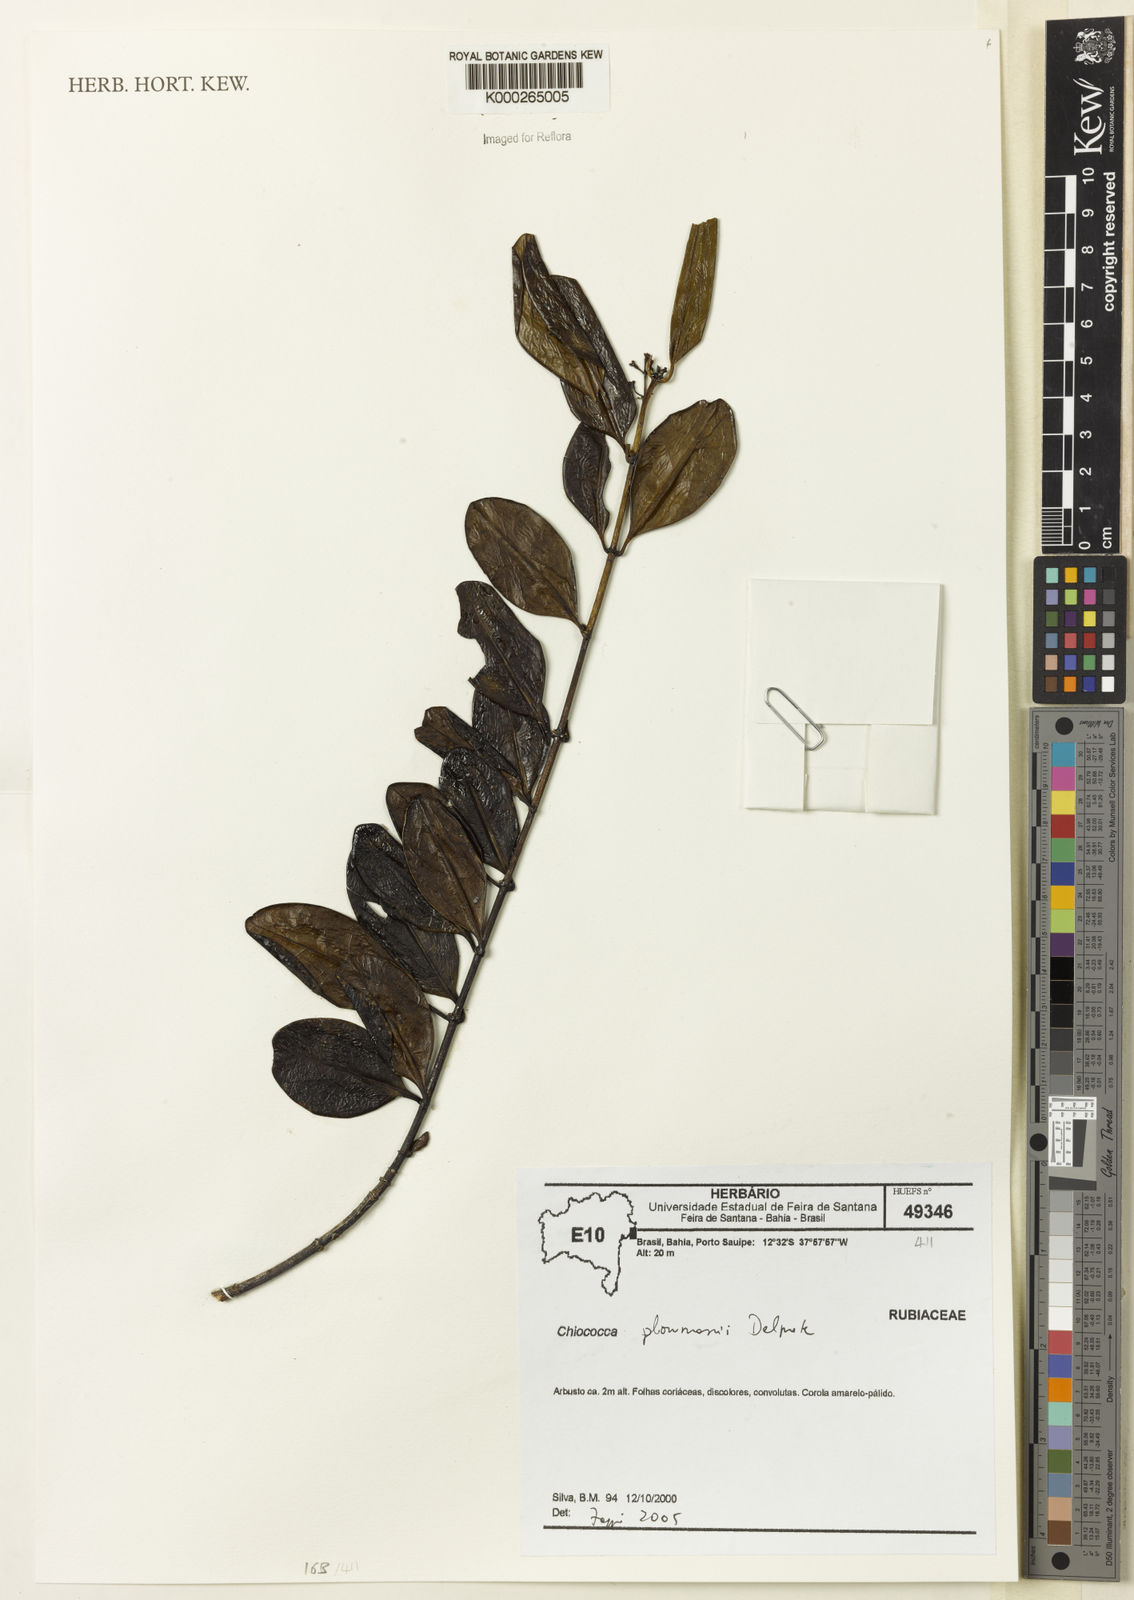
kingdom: Plantae
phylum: Tracheophyta
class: Magnoliopsida
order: Gentianales
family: Rubiaceae
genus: Salzmannia
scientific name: Salzmannia plowmanii
